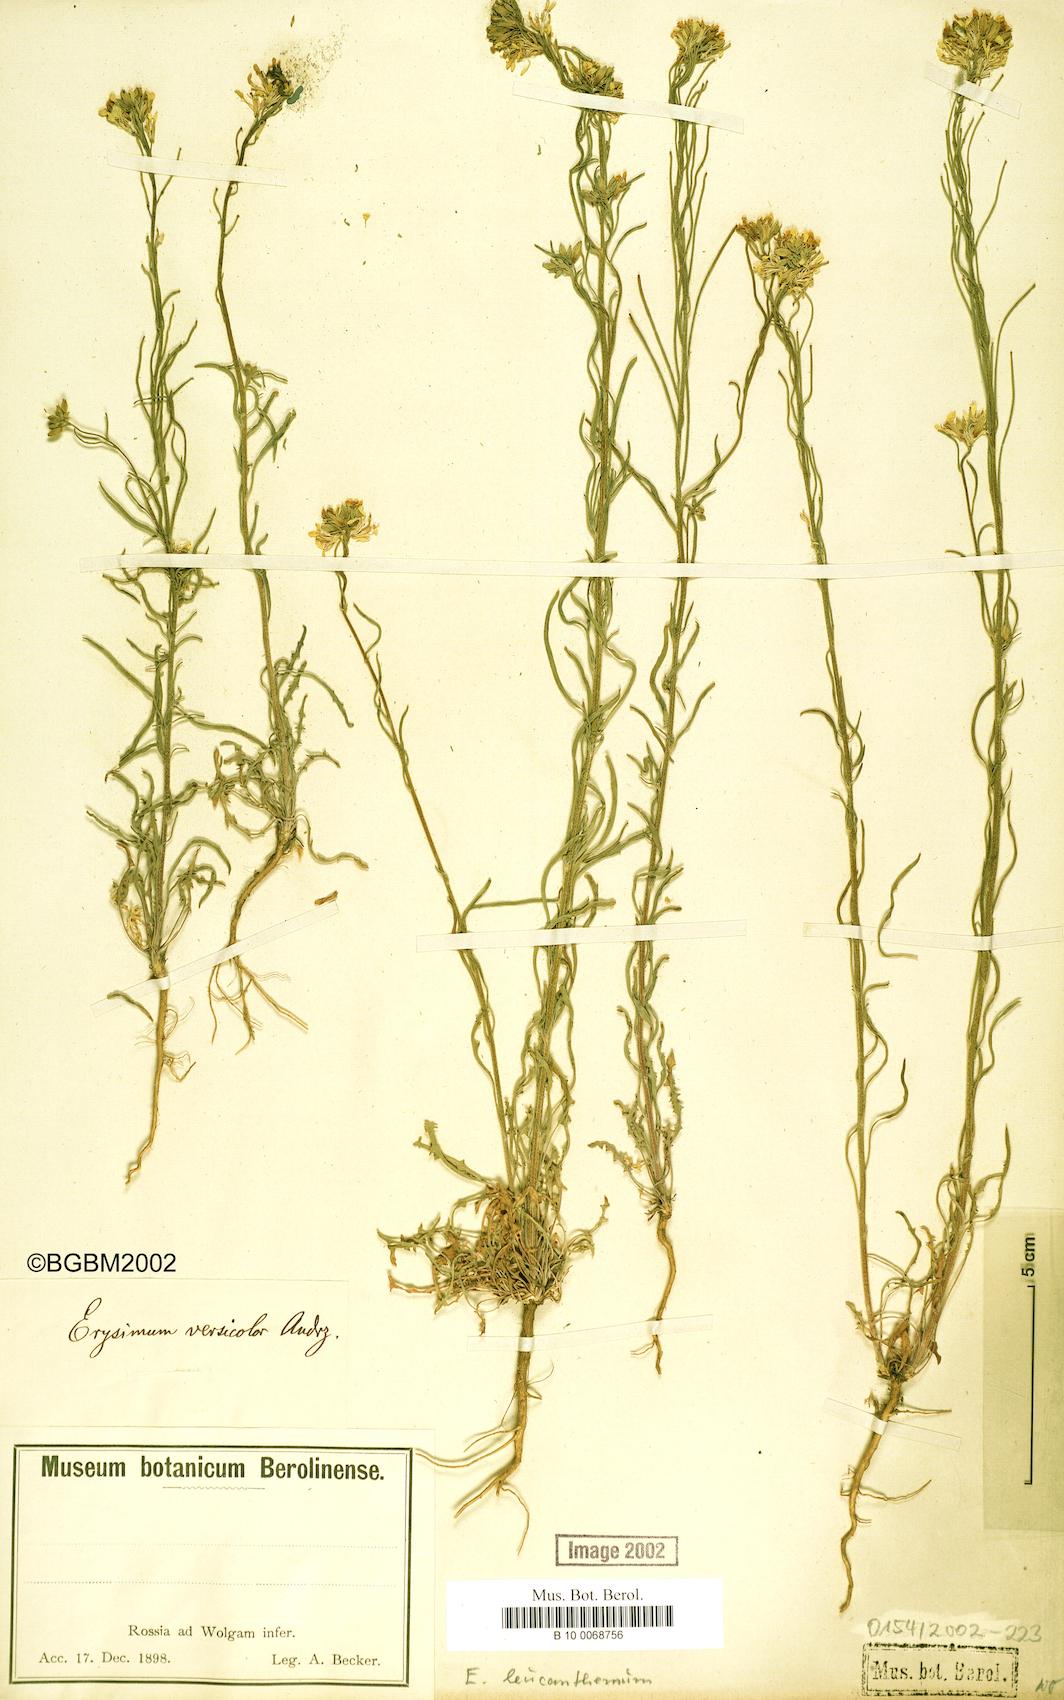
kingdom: Plantae
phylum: Tracheophyta
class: Magnoliopsida
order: Brassicales
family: Brassicaceae
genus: Erysimum
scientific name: Erysimum leucanthemum
